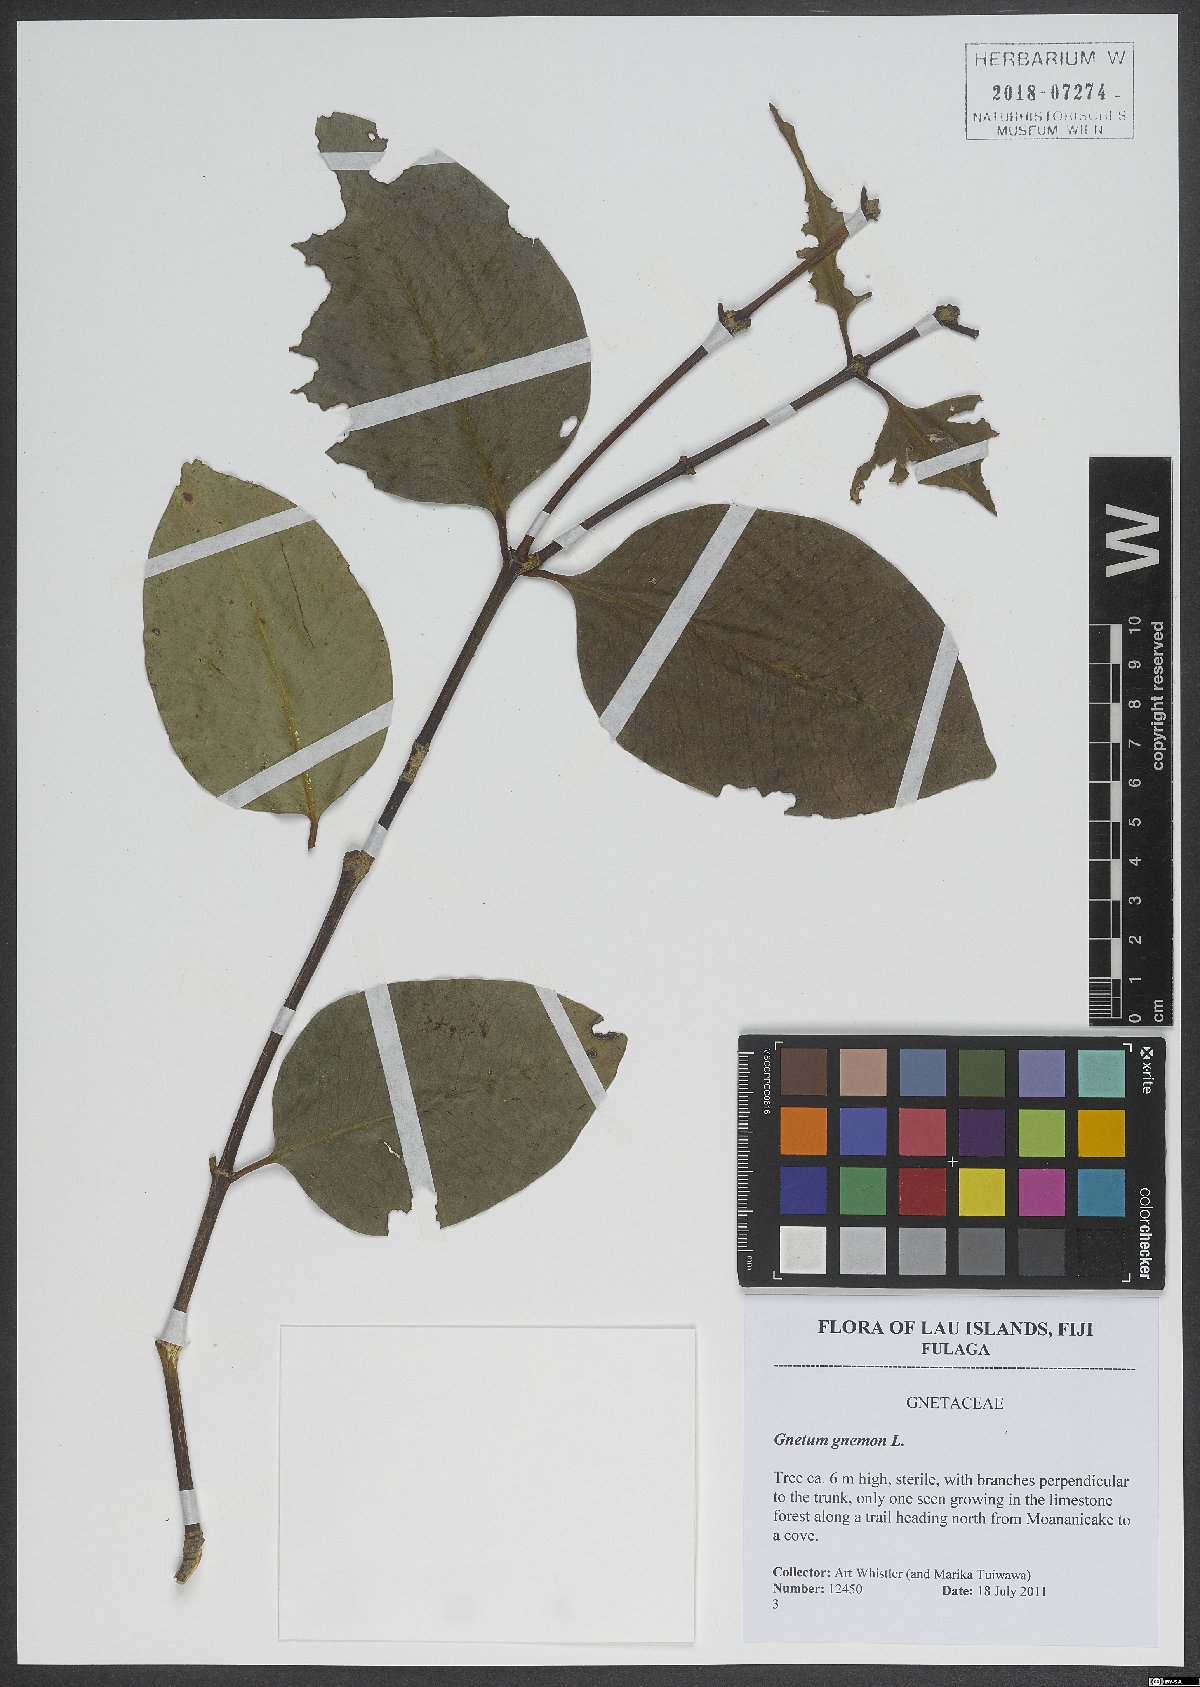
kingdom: Plantae
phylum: Tracheophyta
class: Gnetopsida
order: Gnetales
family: Gnetaceae
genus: Gnetum
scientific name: Gnetum gnemon
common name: Spanish joint-fir
